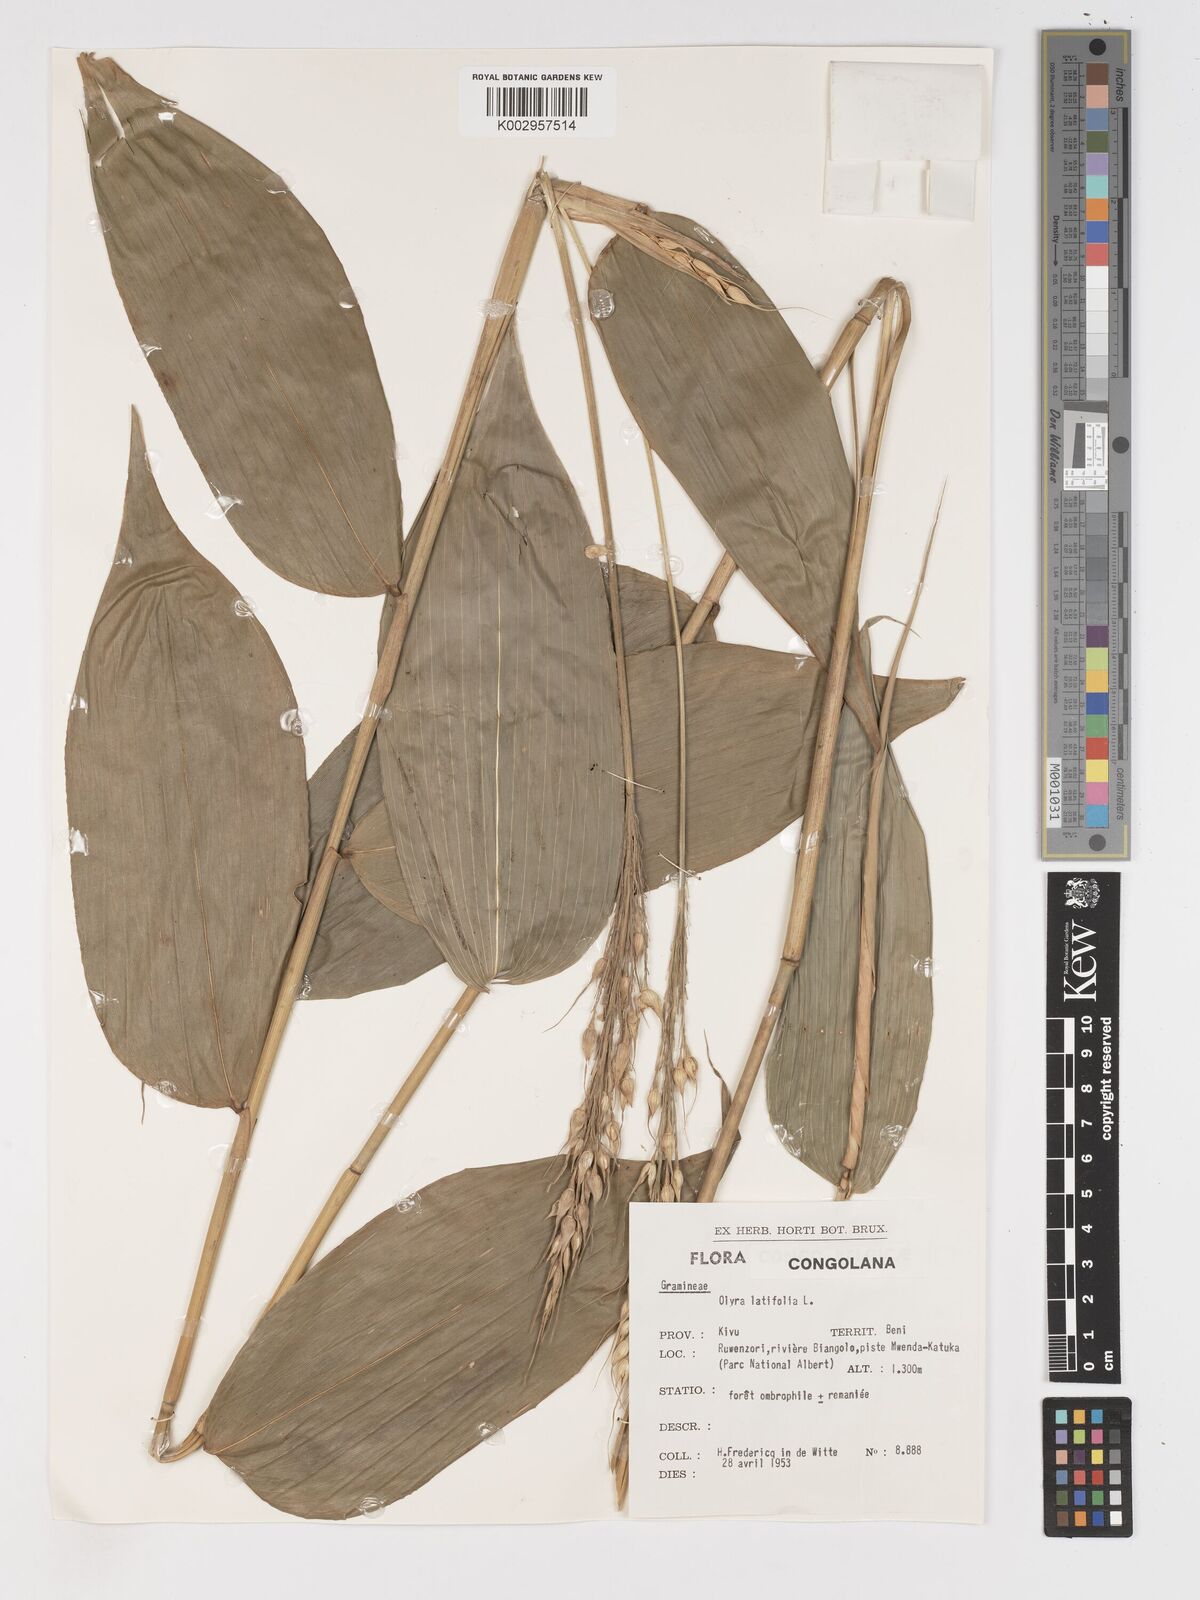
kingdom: Plantae
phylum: Tracheophyta
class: Liliopsida
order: Poales
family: Poaceae
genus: Olyra
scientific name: Olyra latifolia
